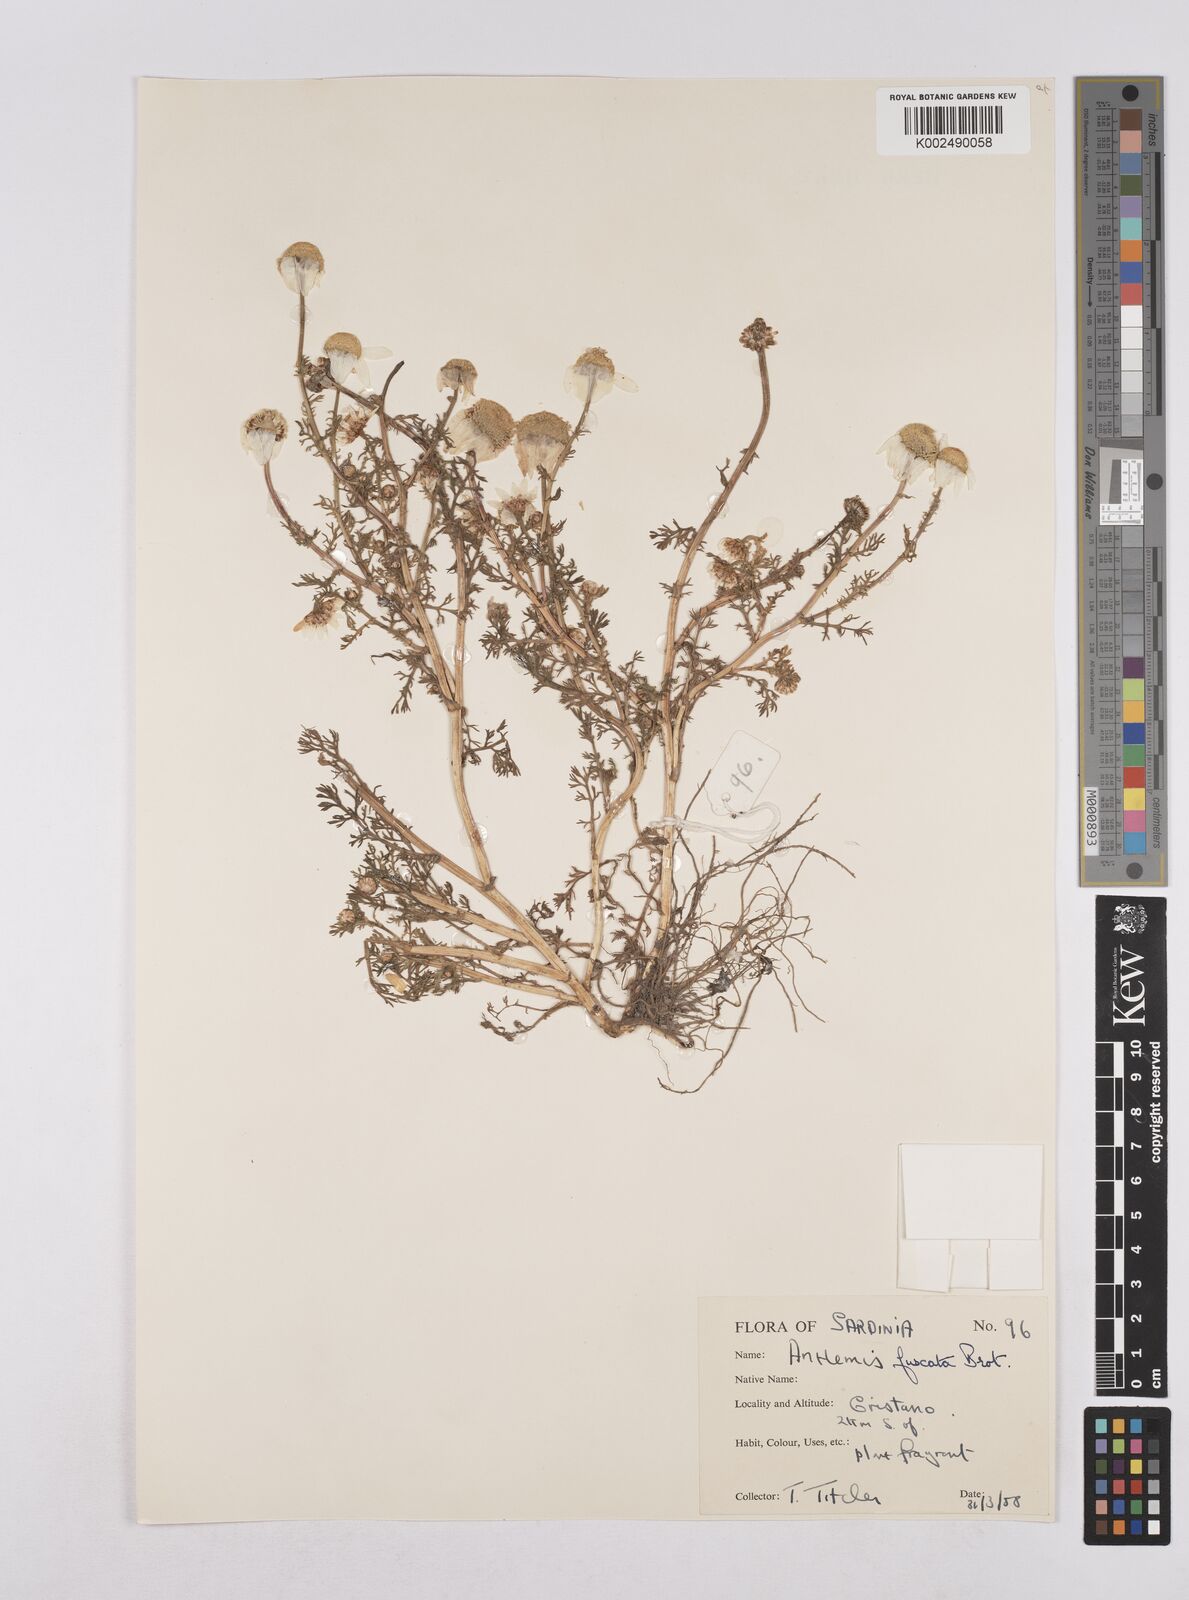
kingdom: Plantae
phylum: Tracheophyta
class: Magnoliopsida
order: Asterales
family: Asteraceae
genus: Chamaemelum
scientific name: Chamaemelum fuscatum
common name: Chamomile
